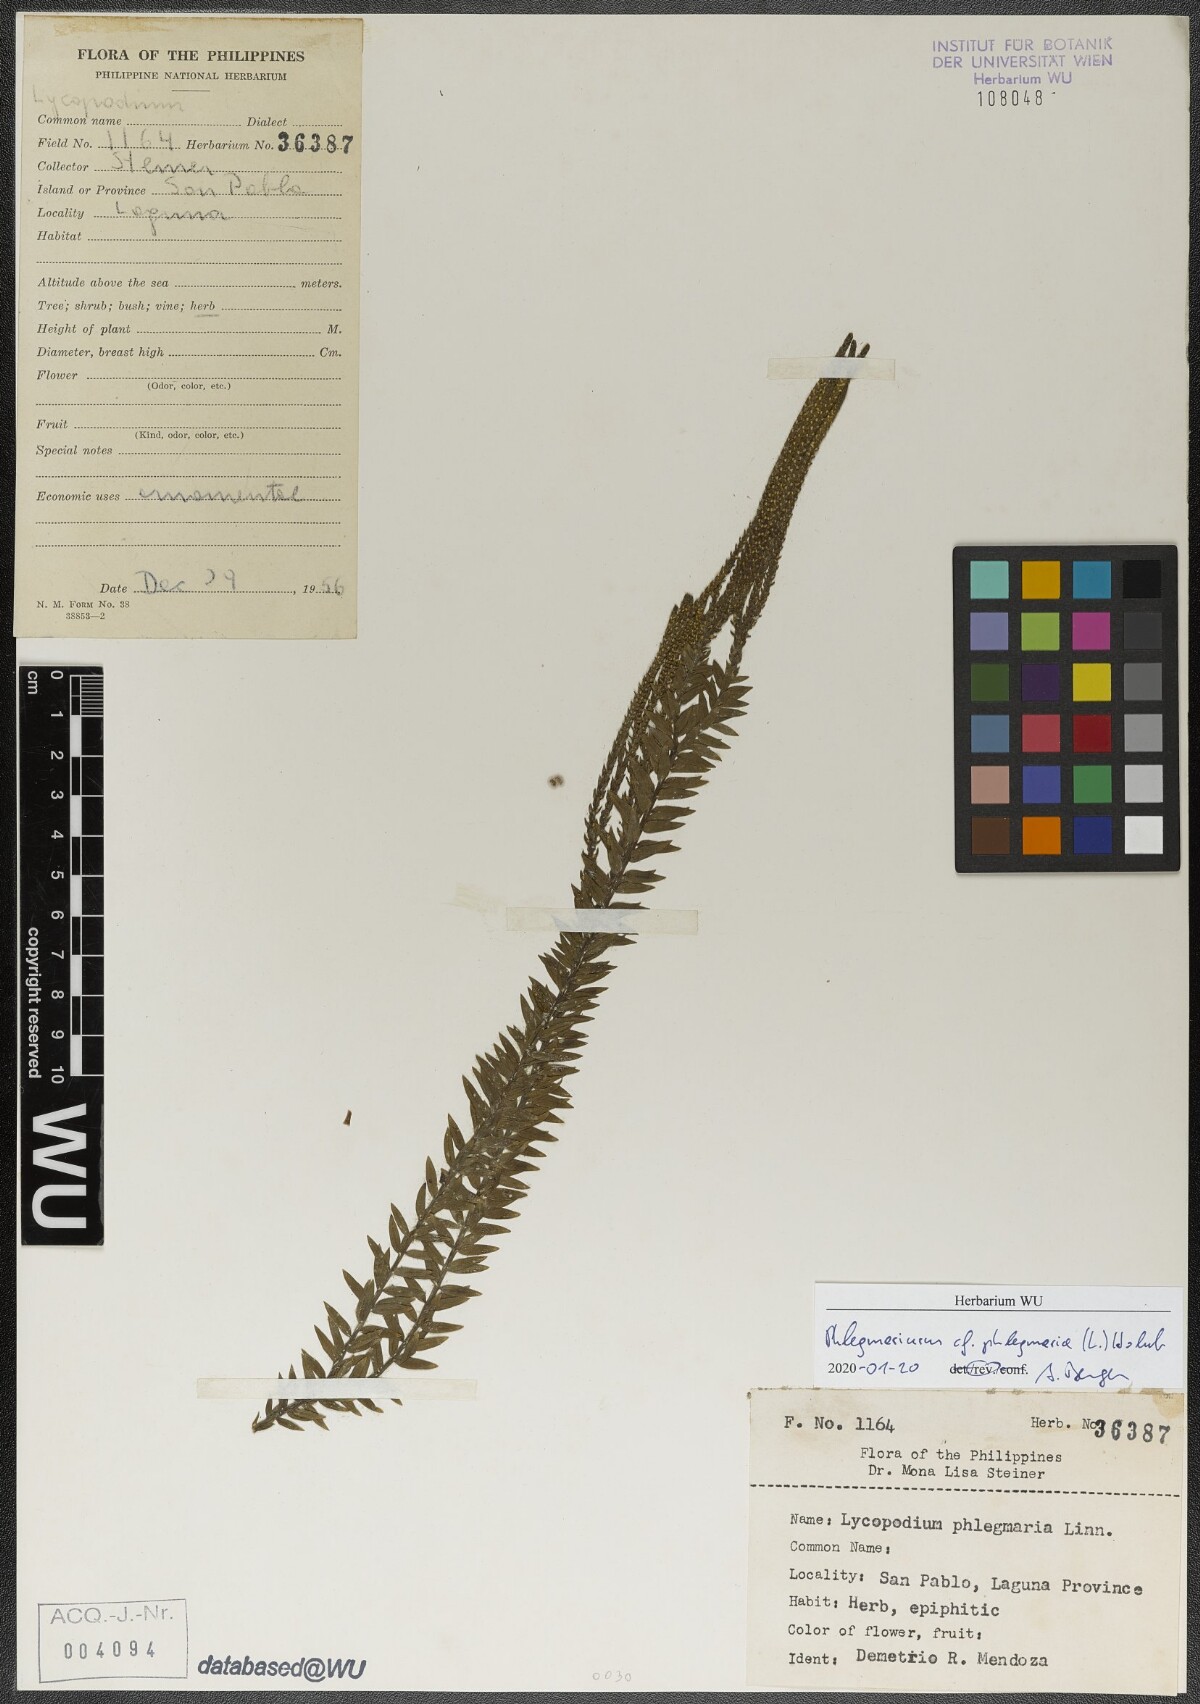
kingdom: Plantae
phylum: Tracheophyta
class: Lycopodiopsida
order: Lycopodiales
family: Lycopodiaceae
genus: Phlegmariurus
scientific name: Phlegmariurus phlegmaria
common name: Coarse tassel-fern
